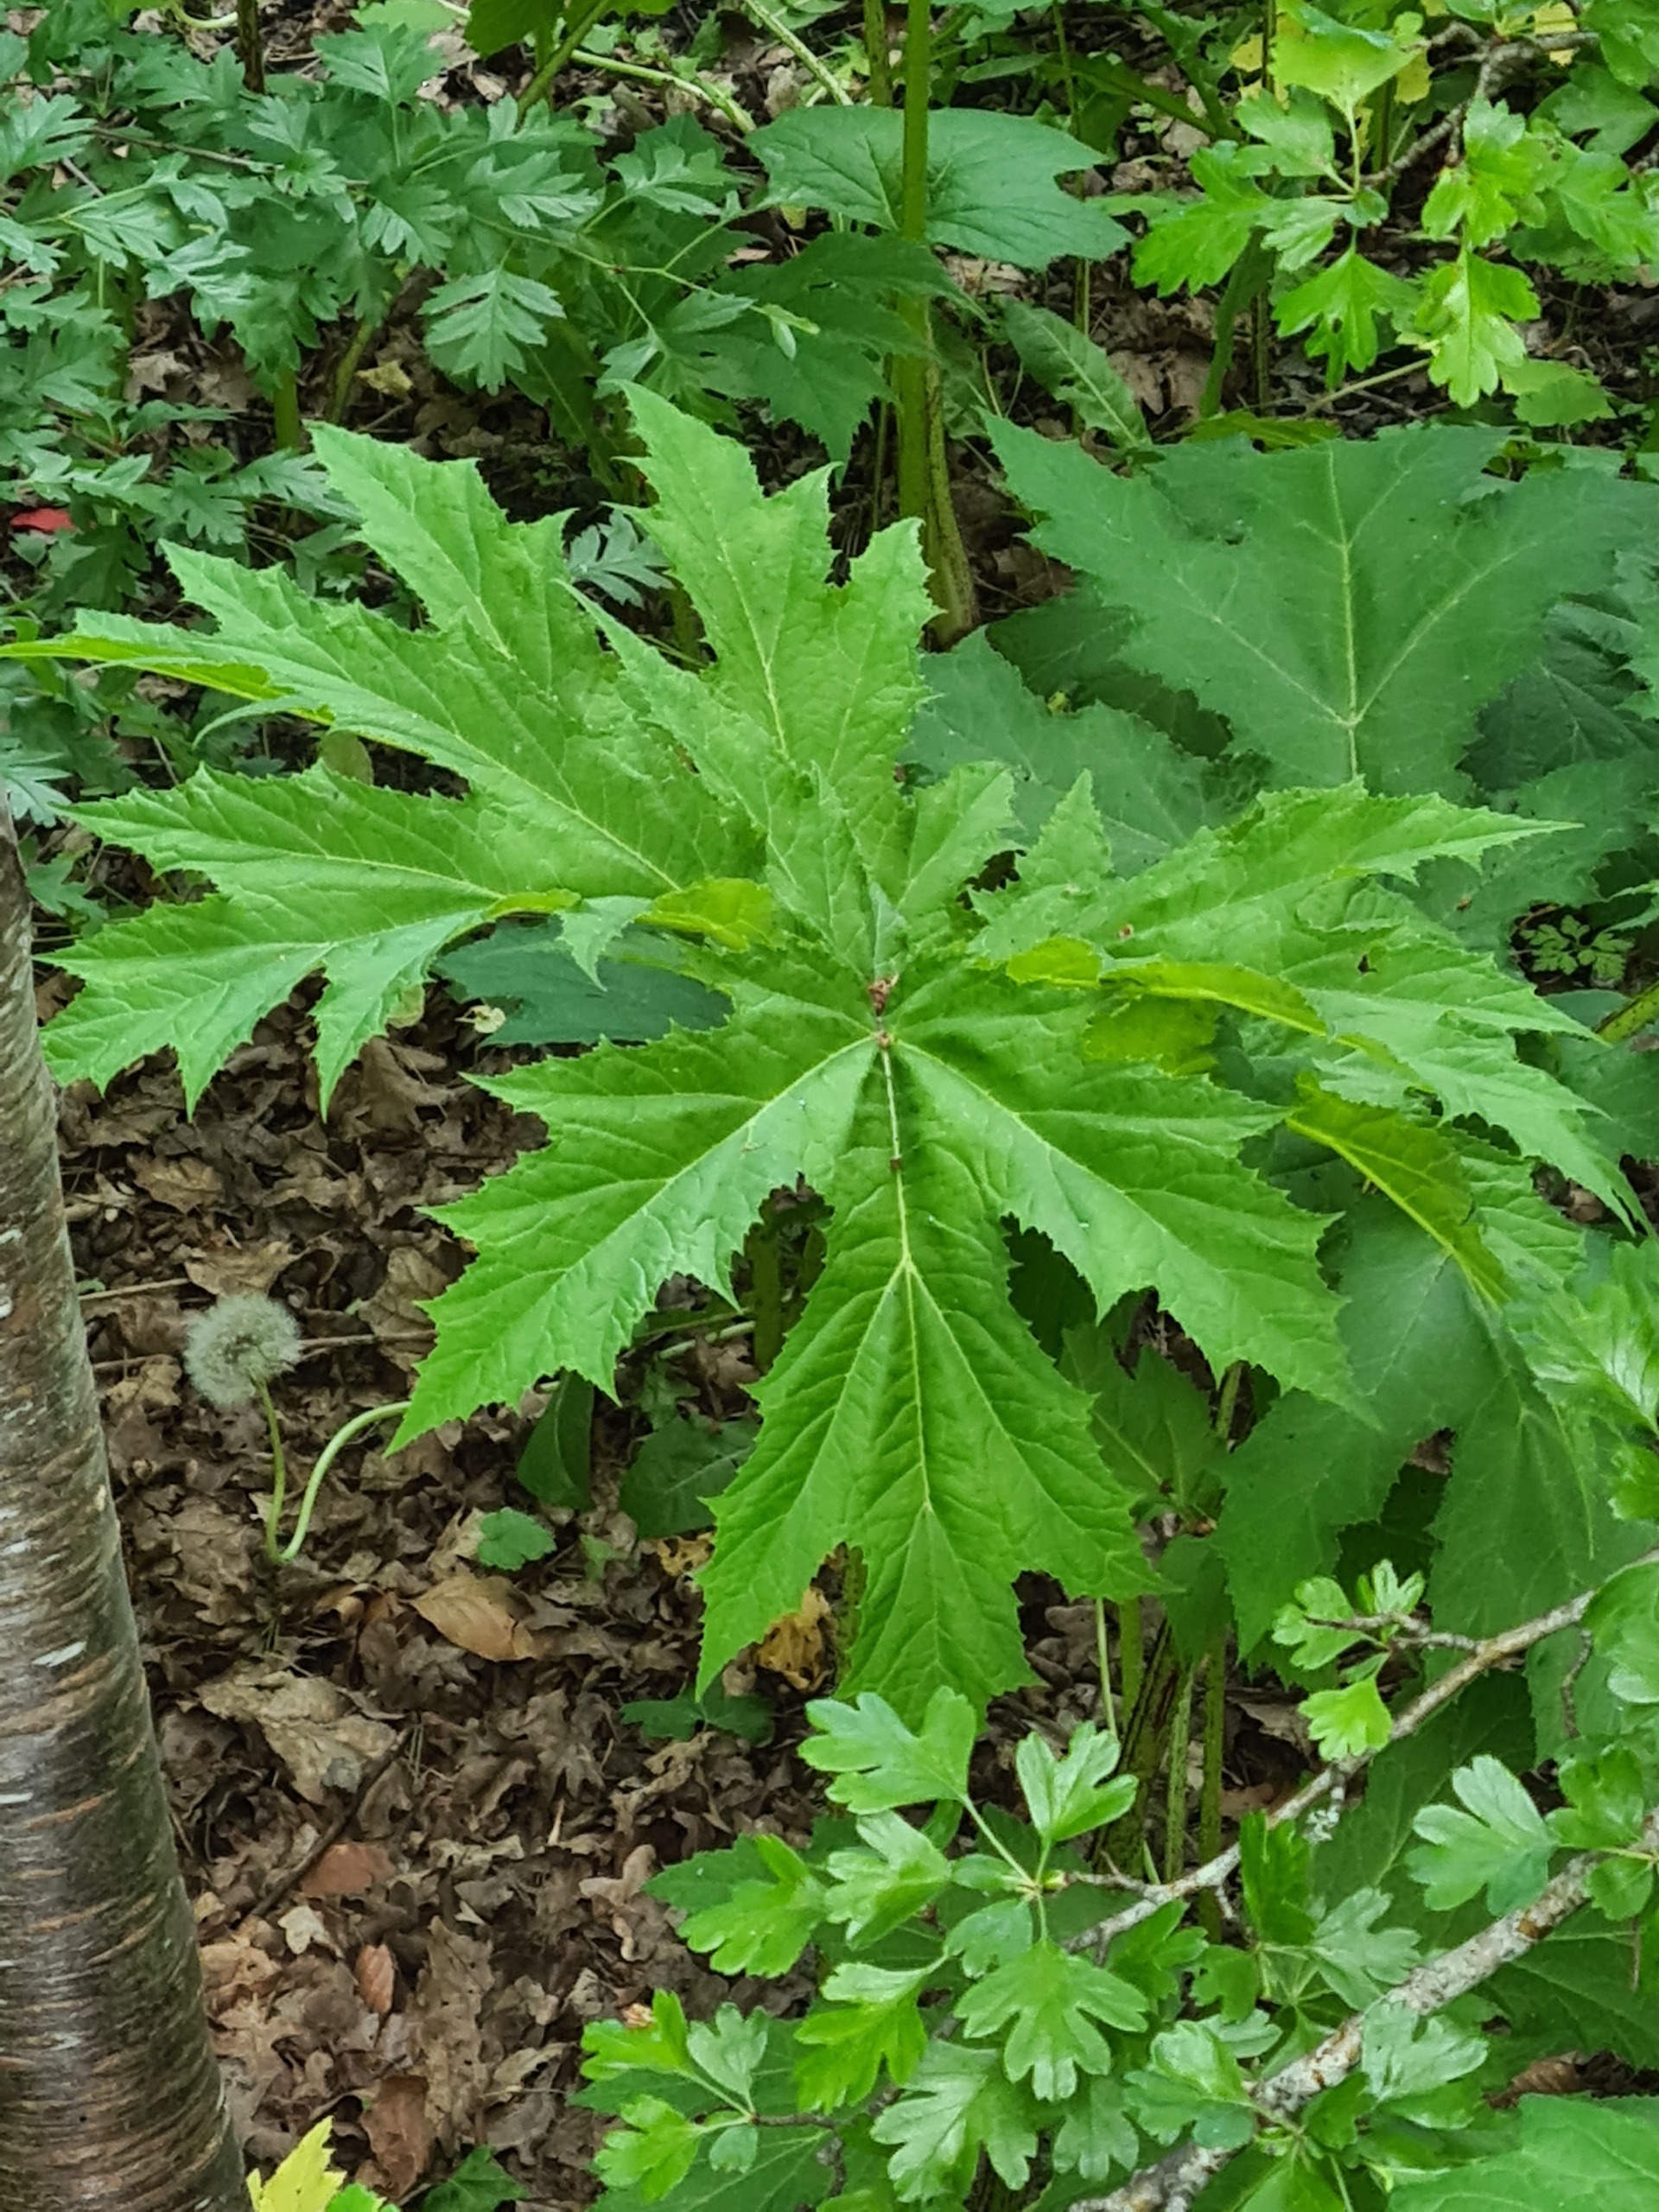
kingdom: Plantae
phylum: Tracheophyta
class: Magnoliopsida
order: Apiales
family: Apiaceae
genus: Heracleum
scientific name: Heracleum mantegazzianum
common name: Kæmpe-bjørneklo
